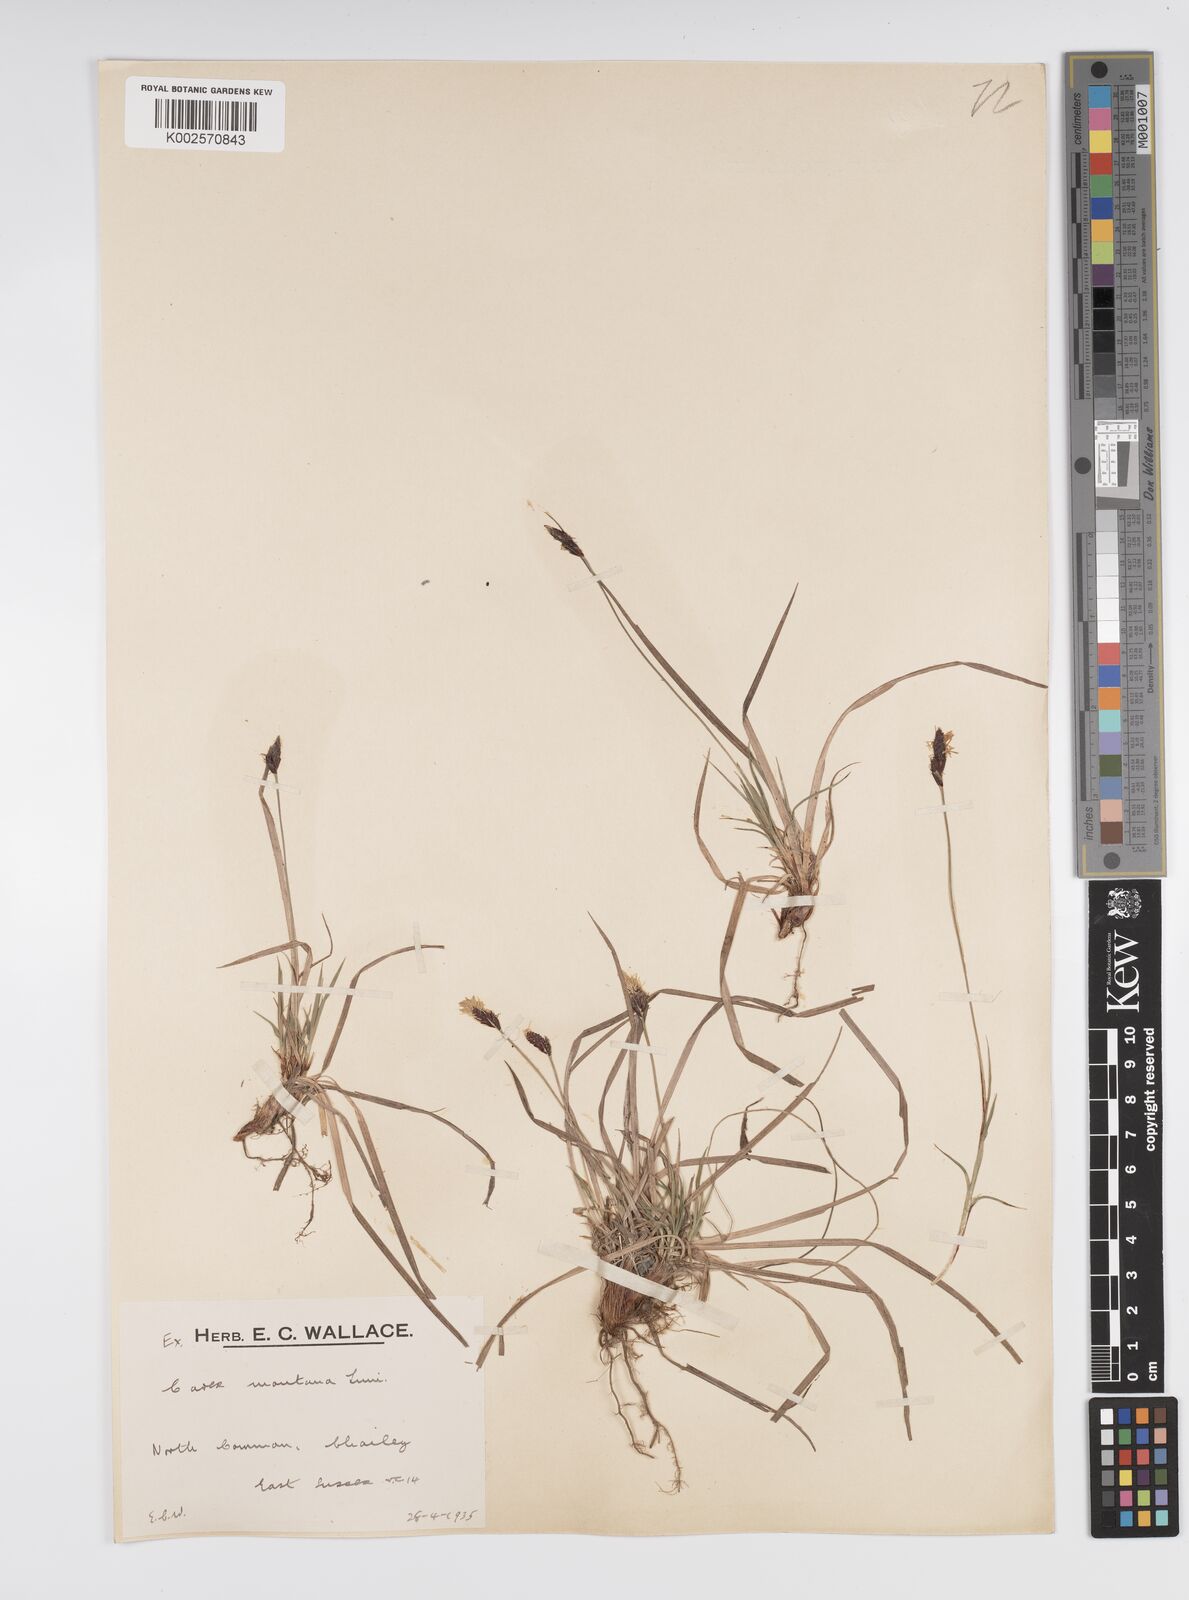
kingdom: Plantae
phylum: Tracheophyta
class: Liliopsida
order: Poales
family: Cyperaceae
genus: Carex
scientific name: Carex montana
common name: Soft-leaved sedge
